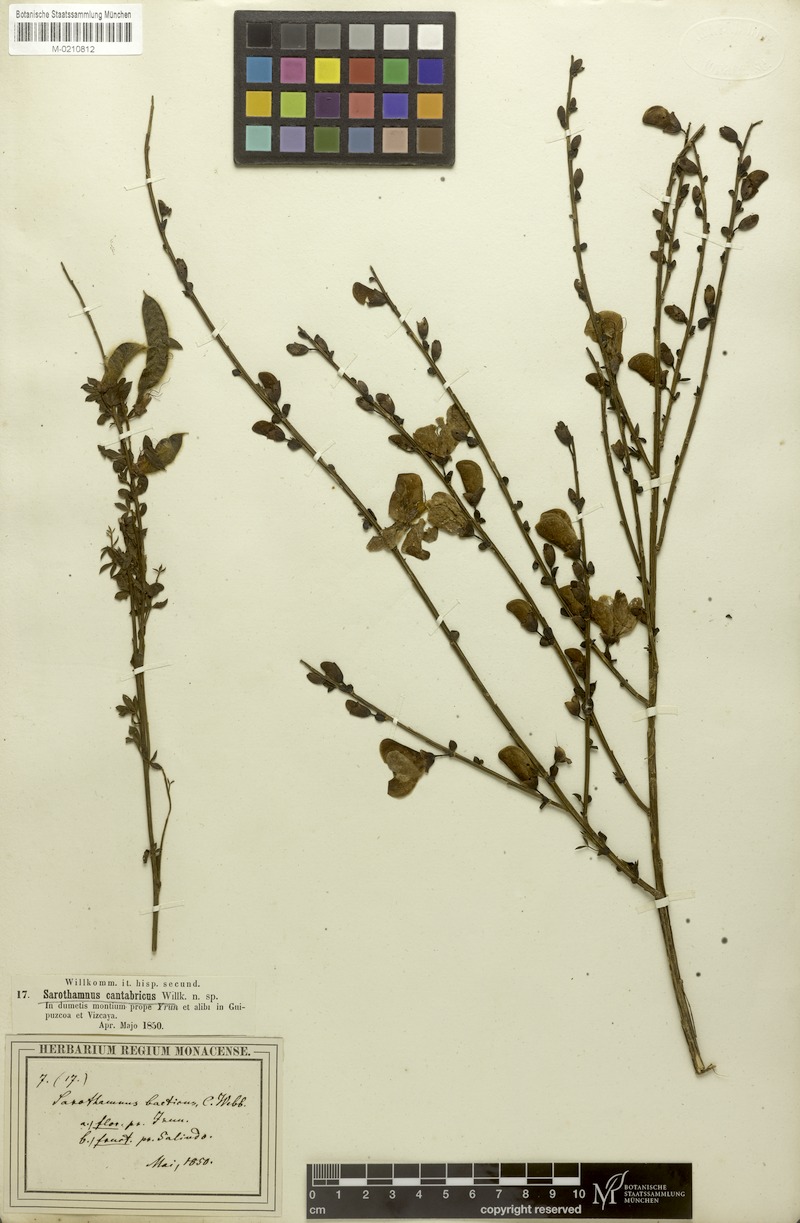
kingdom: Plantae
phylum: Tracheophyta
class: Magnoliopsida
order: Fabales
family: Fabaceae
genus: Cytisophyllum
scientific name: Cytisophyllum Cytisus cantabricus
